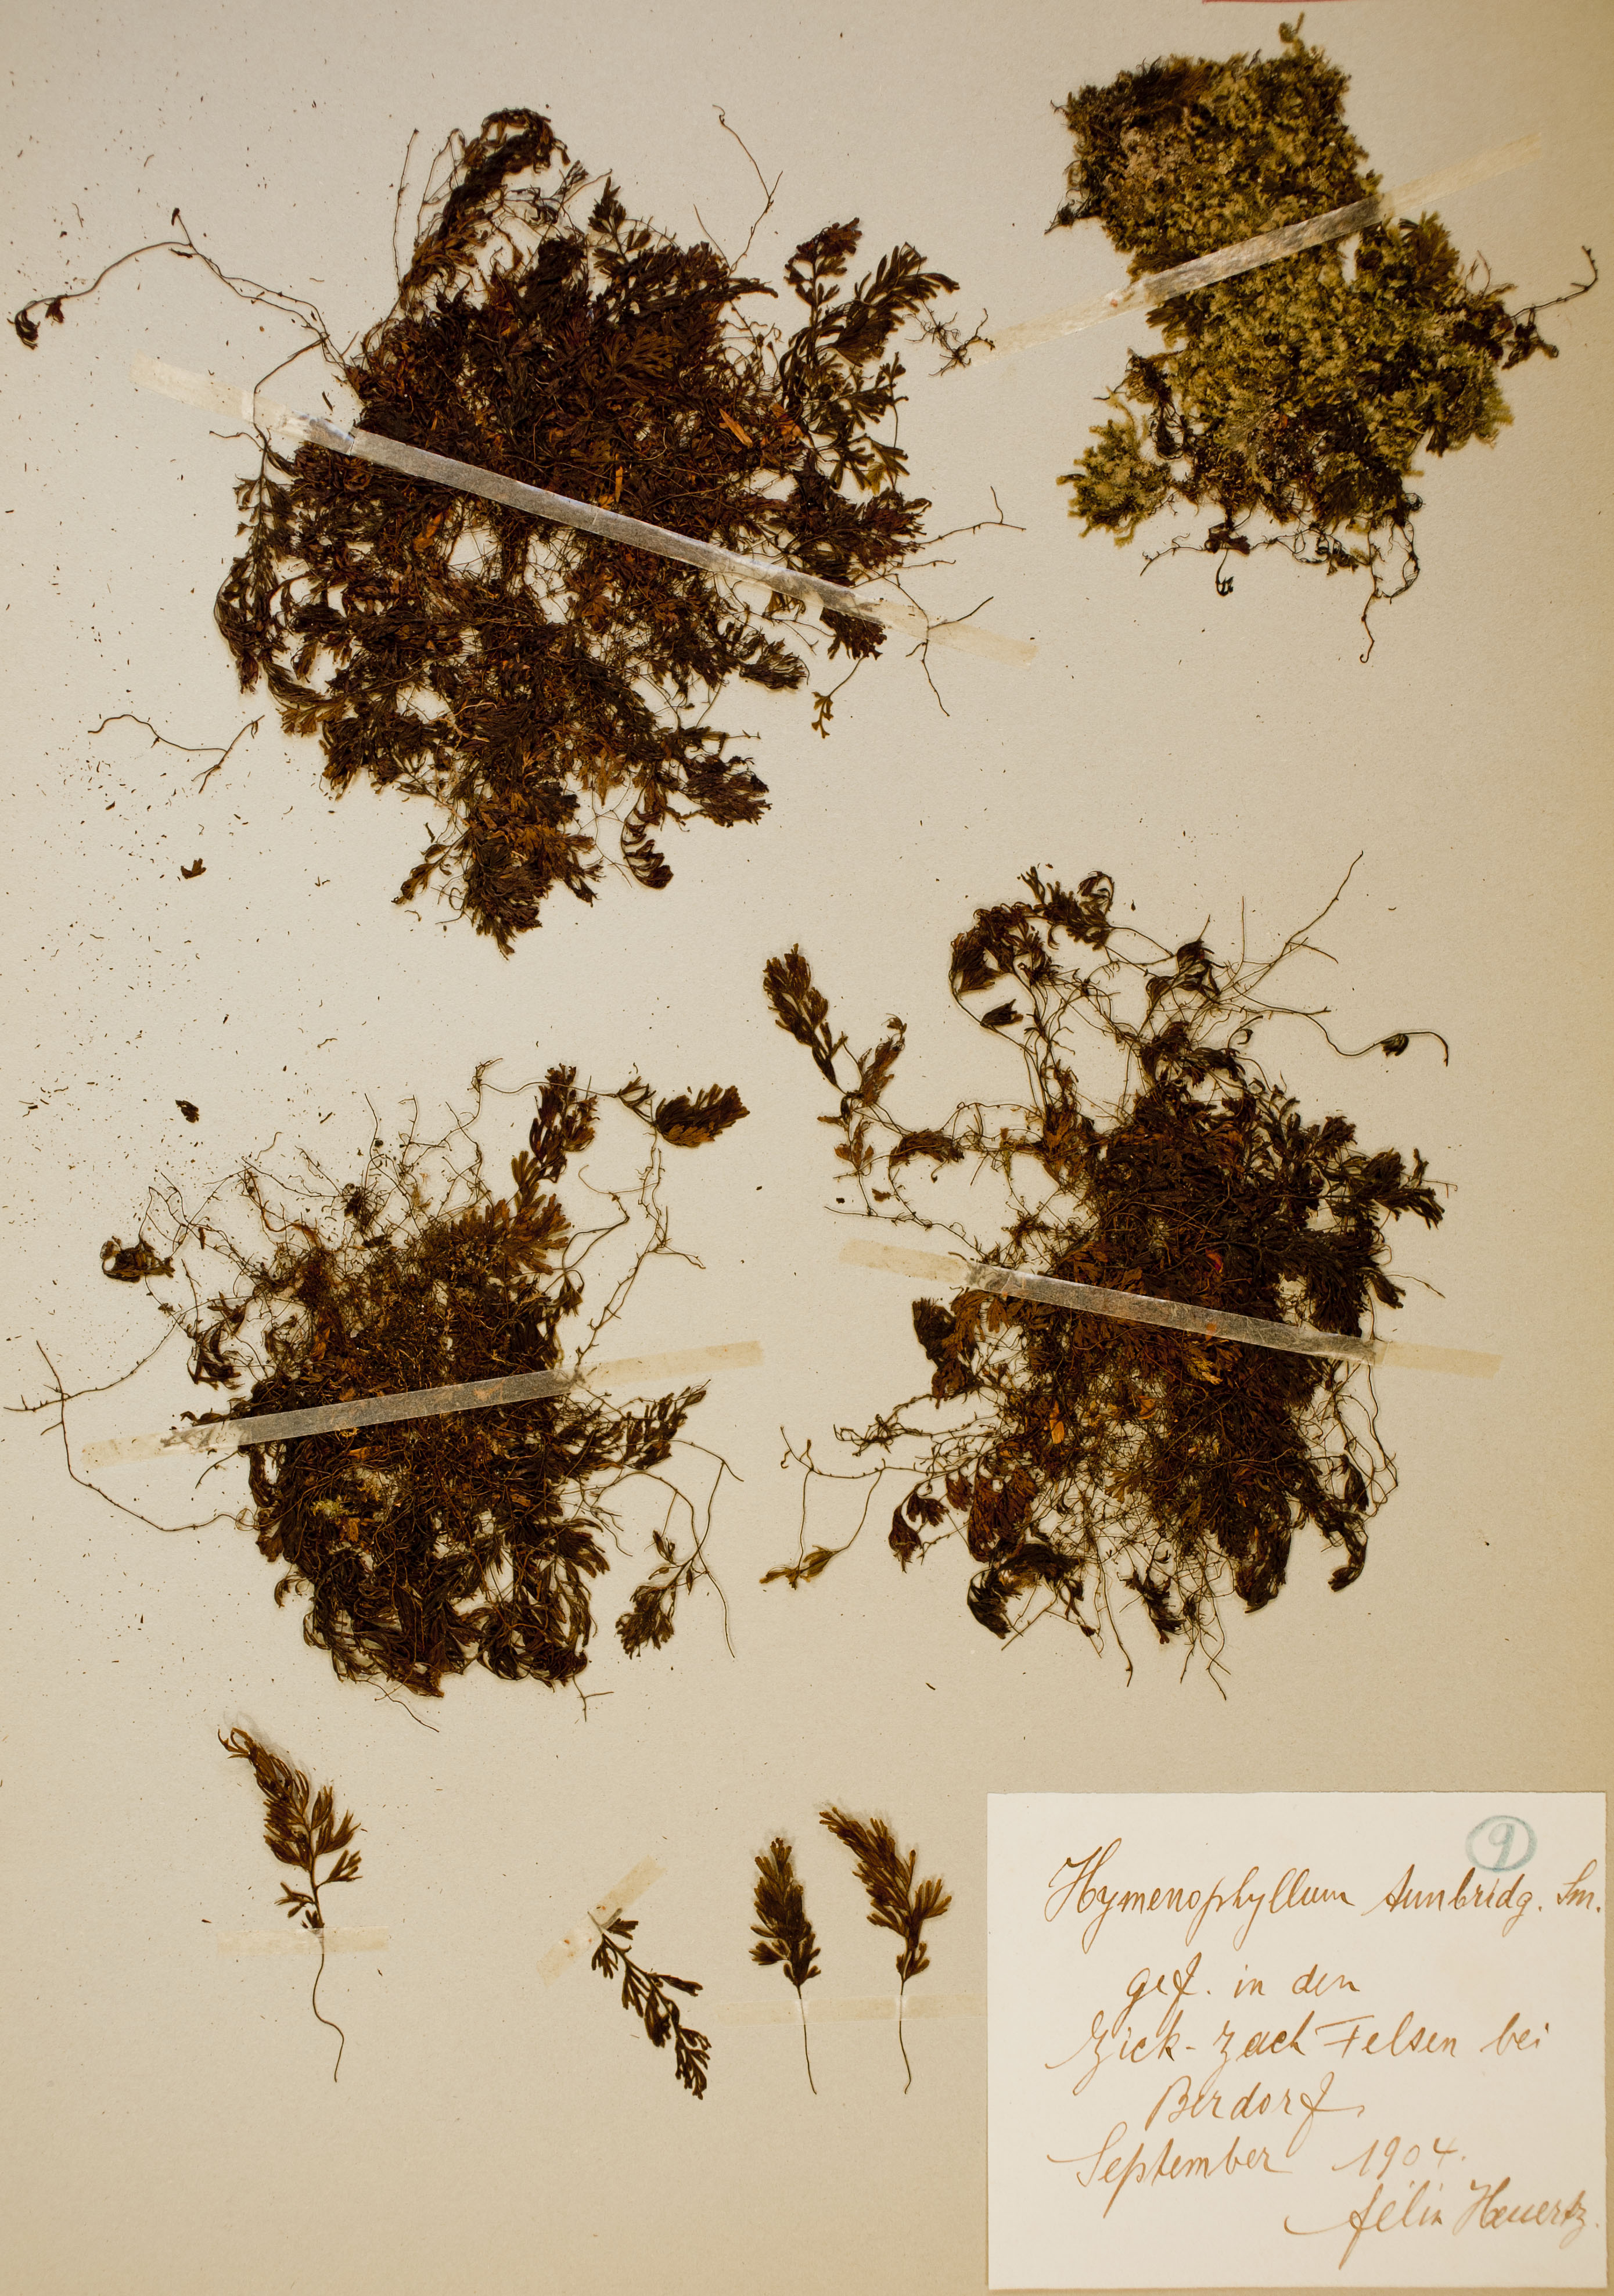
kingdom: Plantae
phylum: Tracheophyta
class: Polypodiopsida
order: Hymenophyllales
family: Hymenophyllaceae
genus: Hymenophyllum
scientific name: Hymenophyllum tunbrigense
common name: Tunbridge filmy fern
